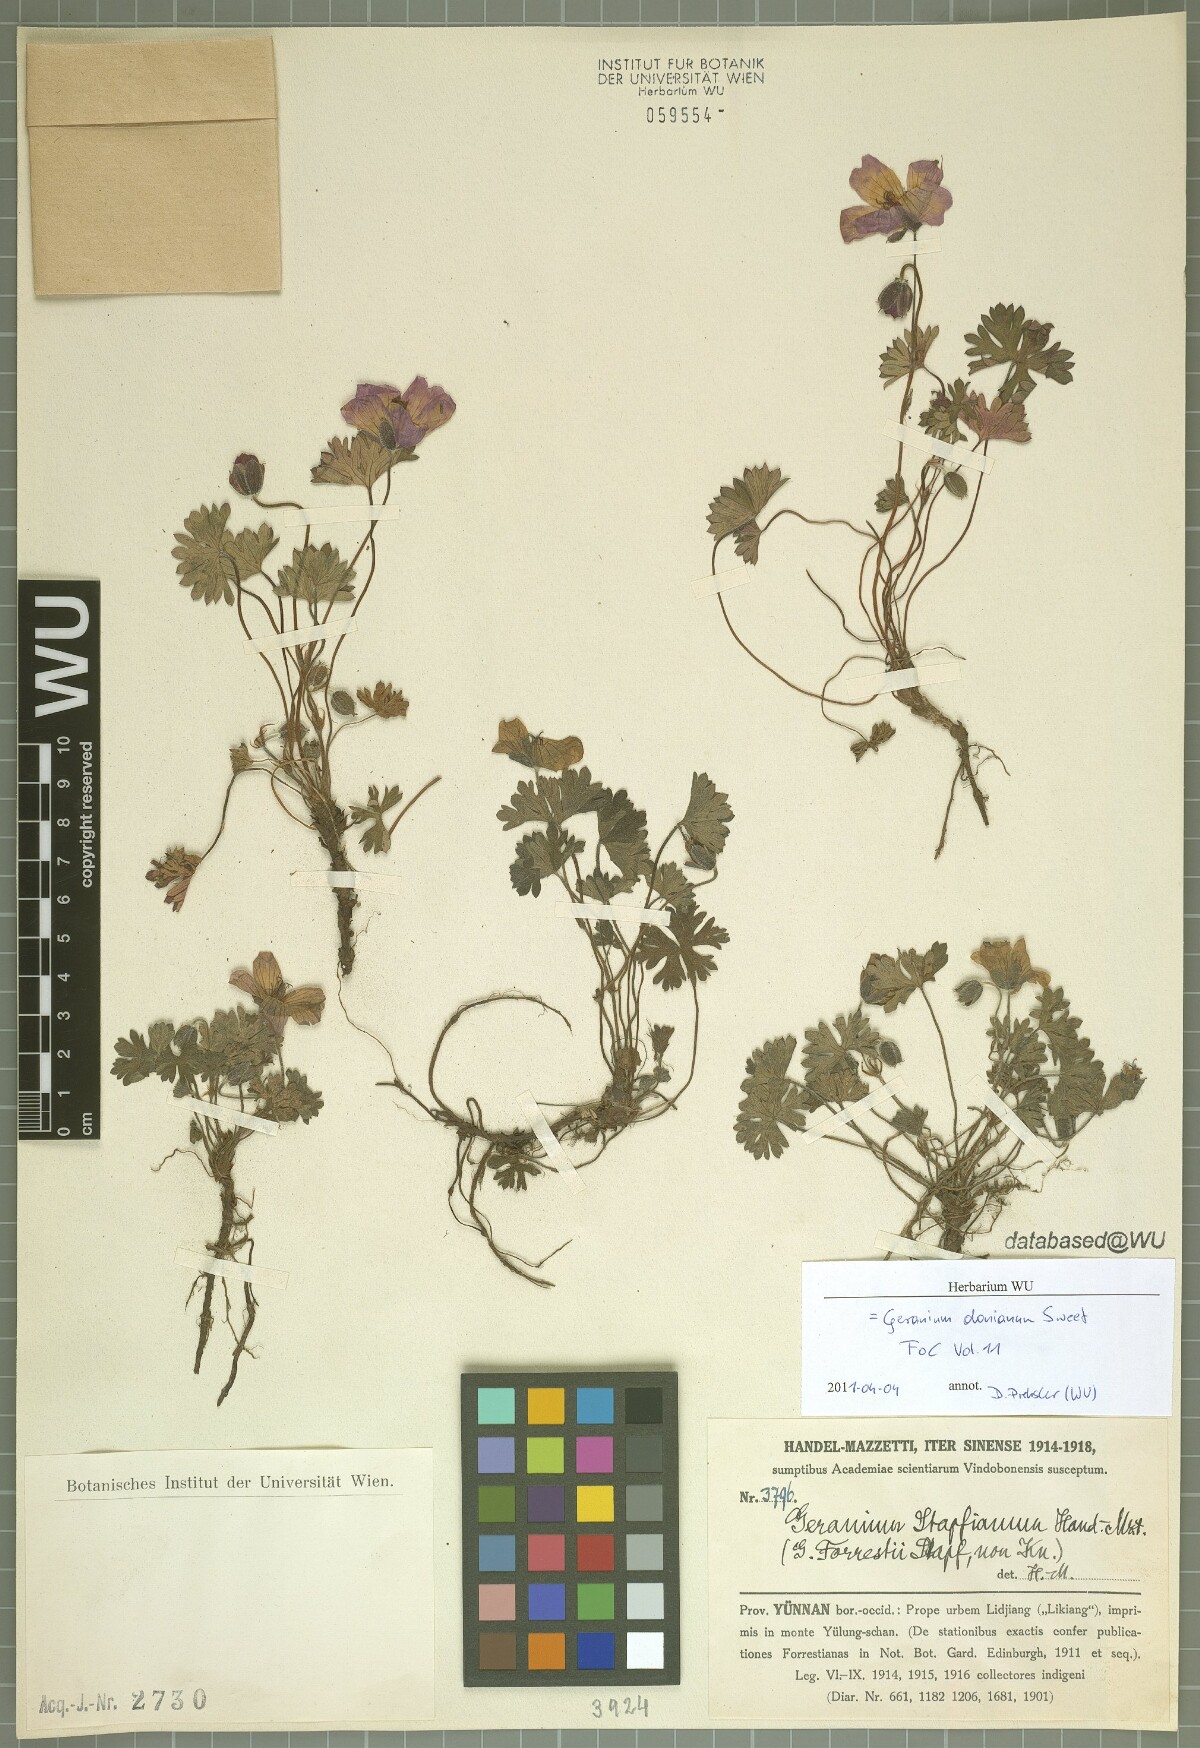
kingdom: Plantae
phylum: Tracheophyta
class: Magnoliopsida
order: Geraniales
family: Geraniaceae
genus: Geranium
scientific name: Geranium donianum
